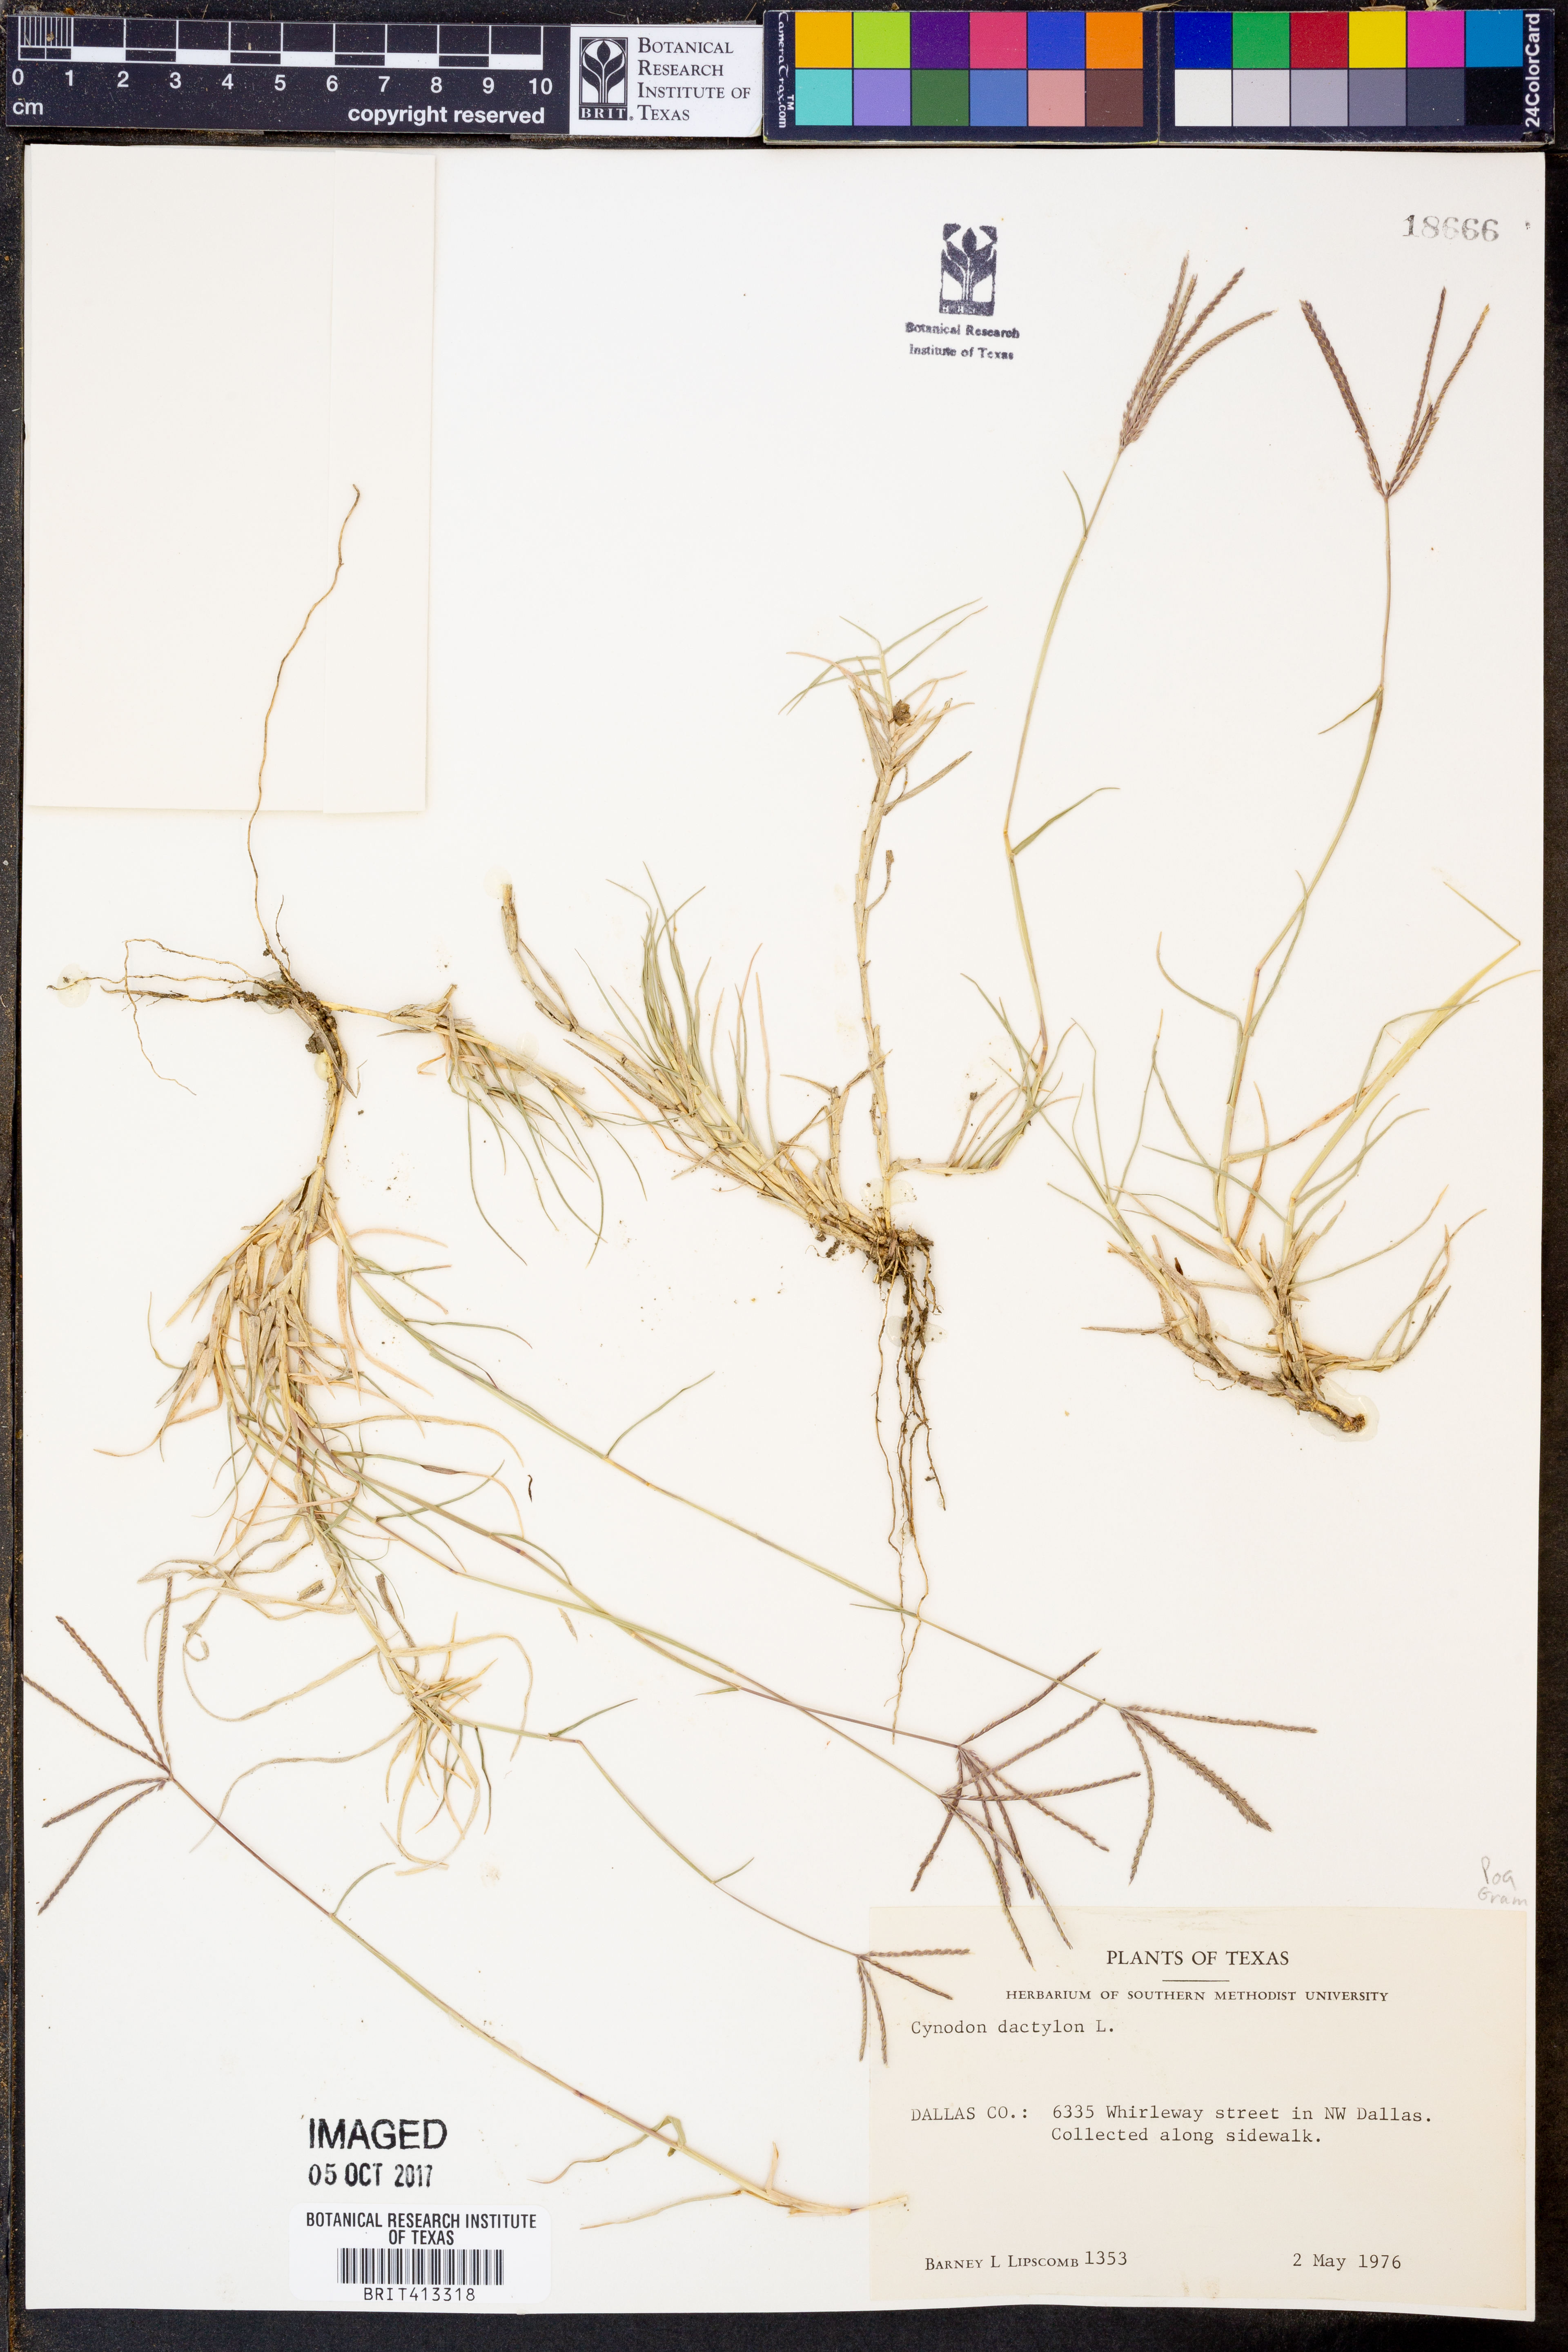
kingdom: Plantae
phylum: Tracheophyta
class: Liliopsida
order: Poales
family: Poaceae
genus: Cynodon
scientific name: Cynodon dactylon
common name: Bermuda grass
